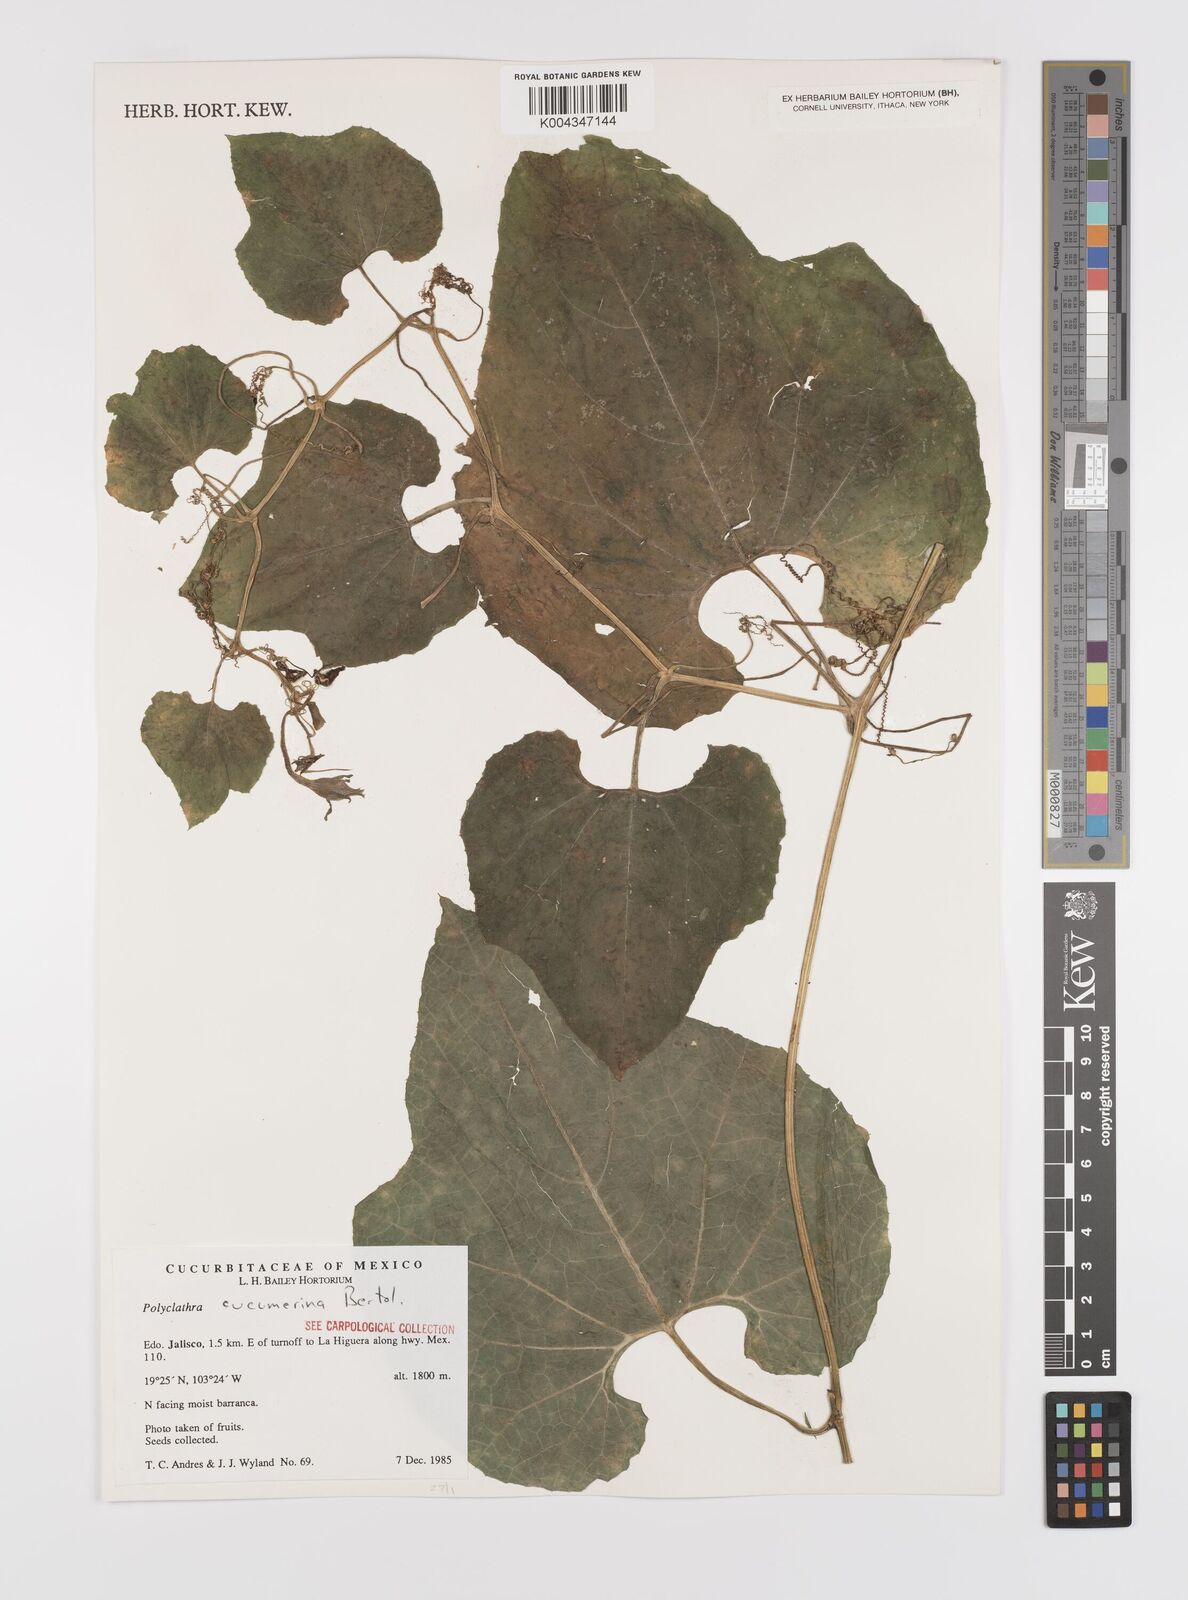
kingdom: Plantae
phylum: Tracheophyta
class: Magnoliopsida
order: Cucurbitales
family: Cucurbitaceae
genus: Polyclathra
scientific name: Polyclathra cucumerina
